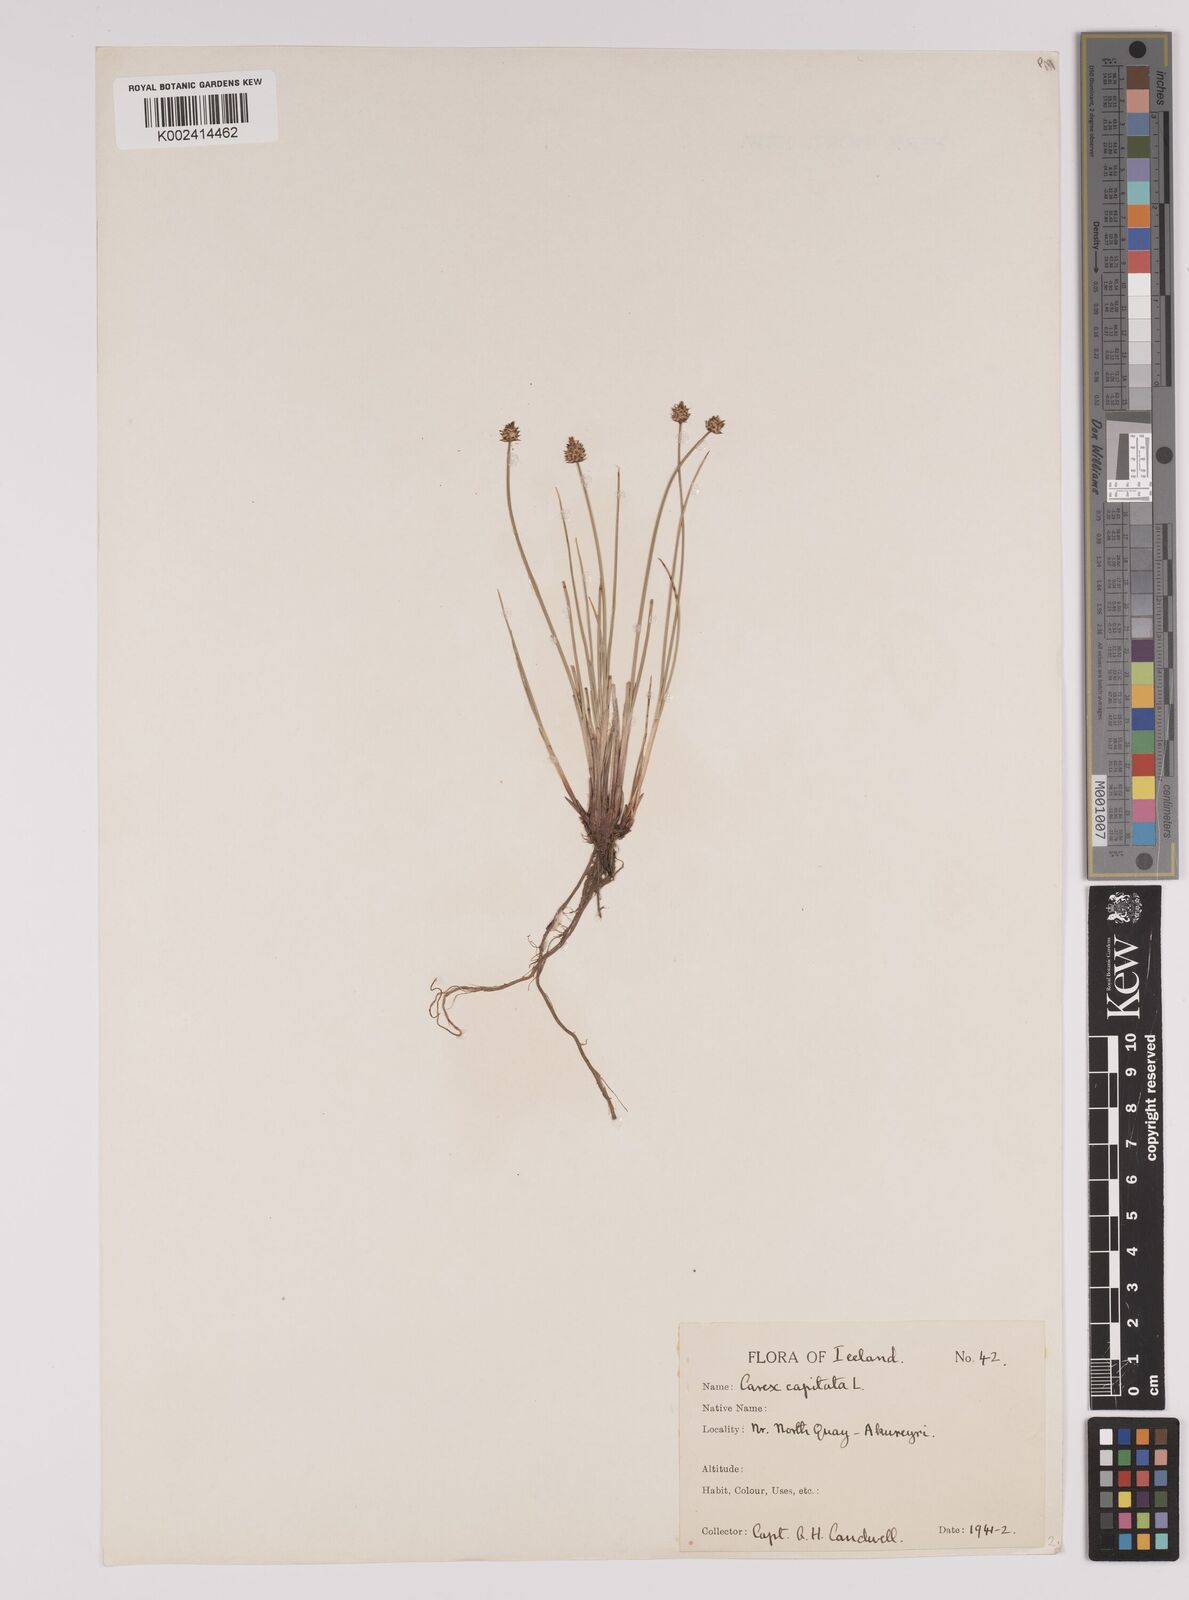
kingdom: Plantae
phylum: Tracheophyta
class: Liliopsida
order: Poales
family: Cyperaceae
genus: Carex
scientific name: Carex capitata
